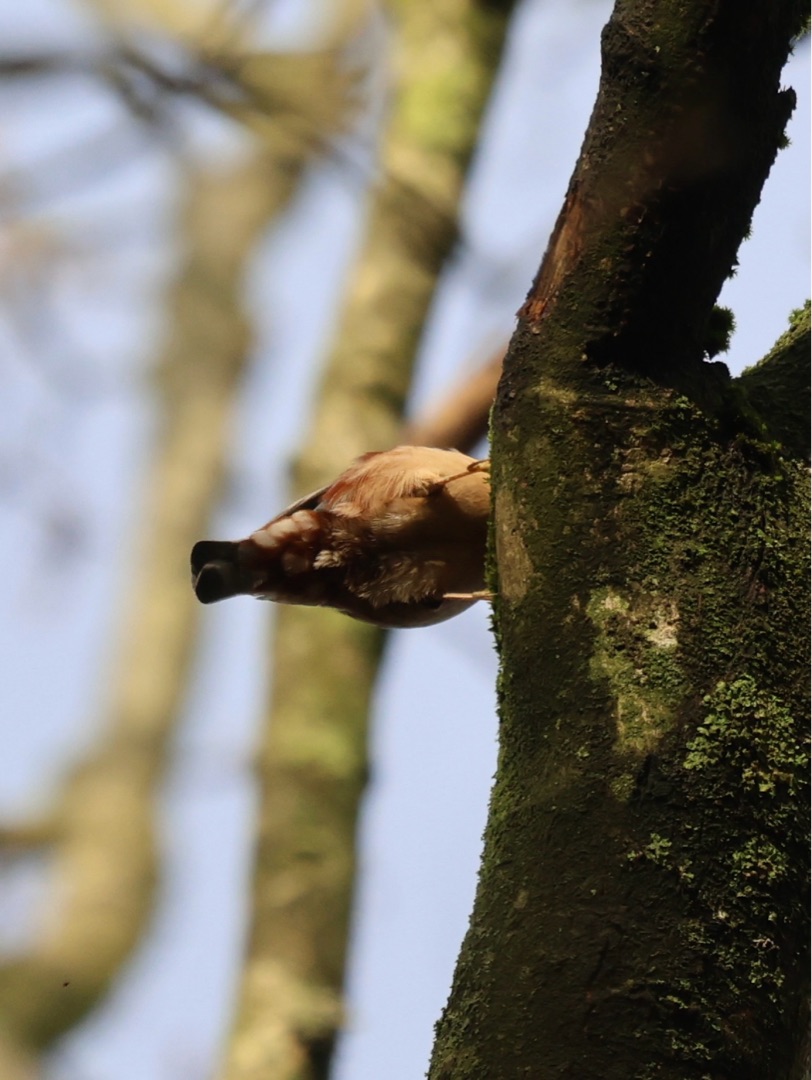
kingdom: Animalia
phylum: Chordata
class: Aves
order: Passeriformes
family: Sittidae
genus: Sitta
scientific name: Sitta europaea
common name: Spætmejse
